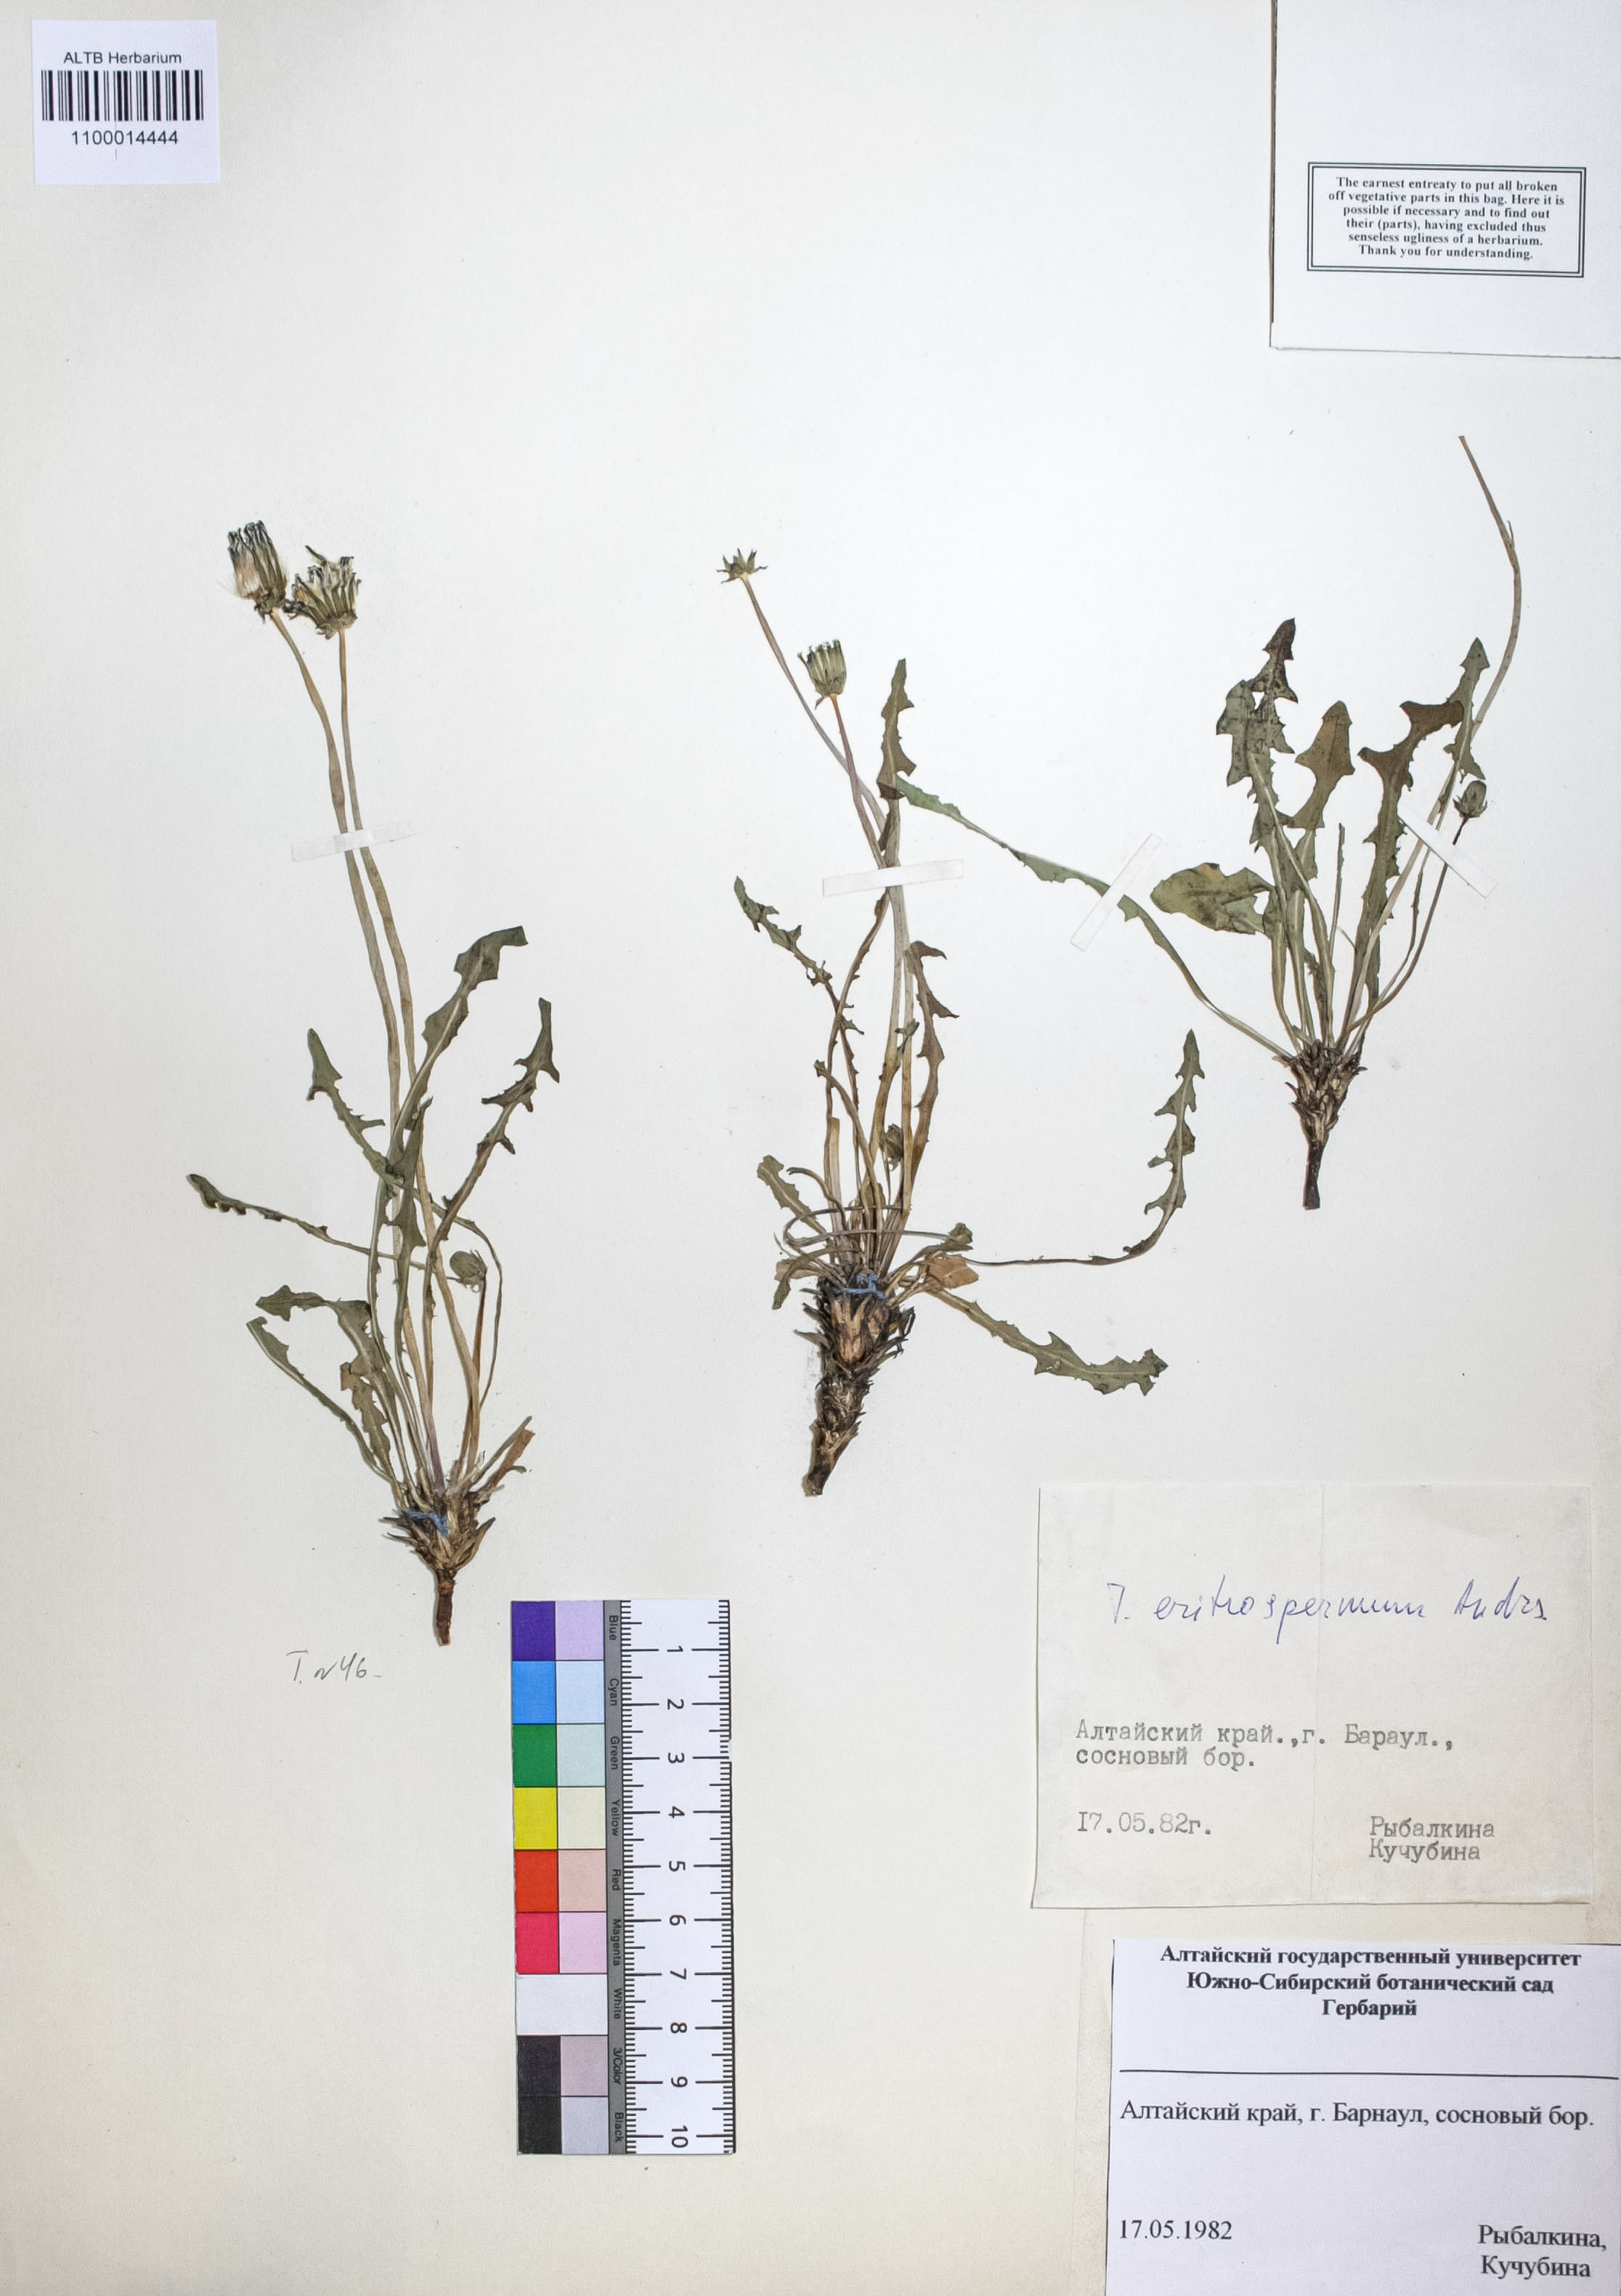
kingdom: Plantae
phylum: Tracheophyta
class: Magnoliopsida
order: Asterales
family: Asteraceae
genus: Taraxacum
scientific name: Taraxacum erythrospermum
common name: Rock dandelion
